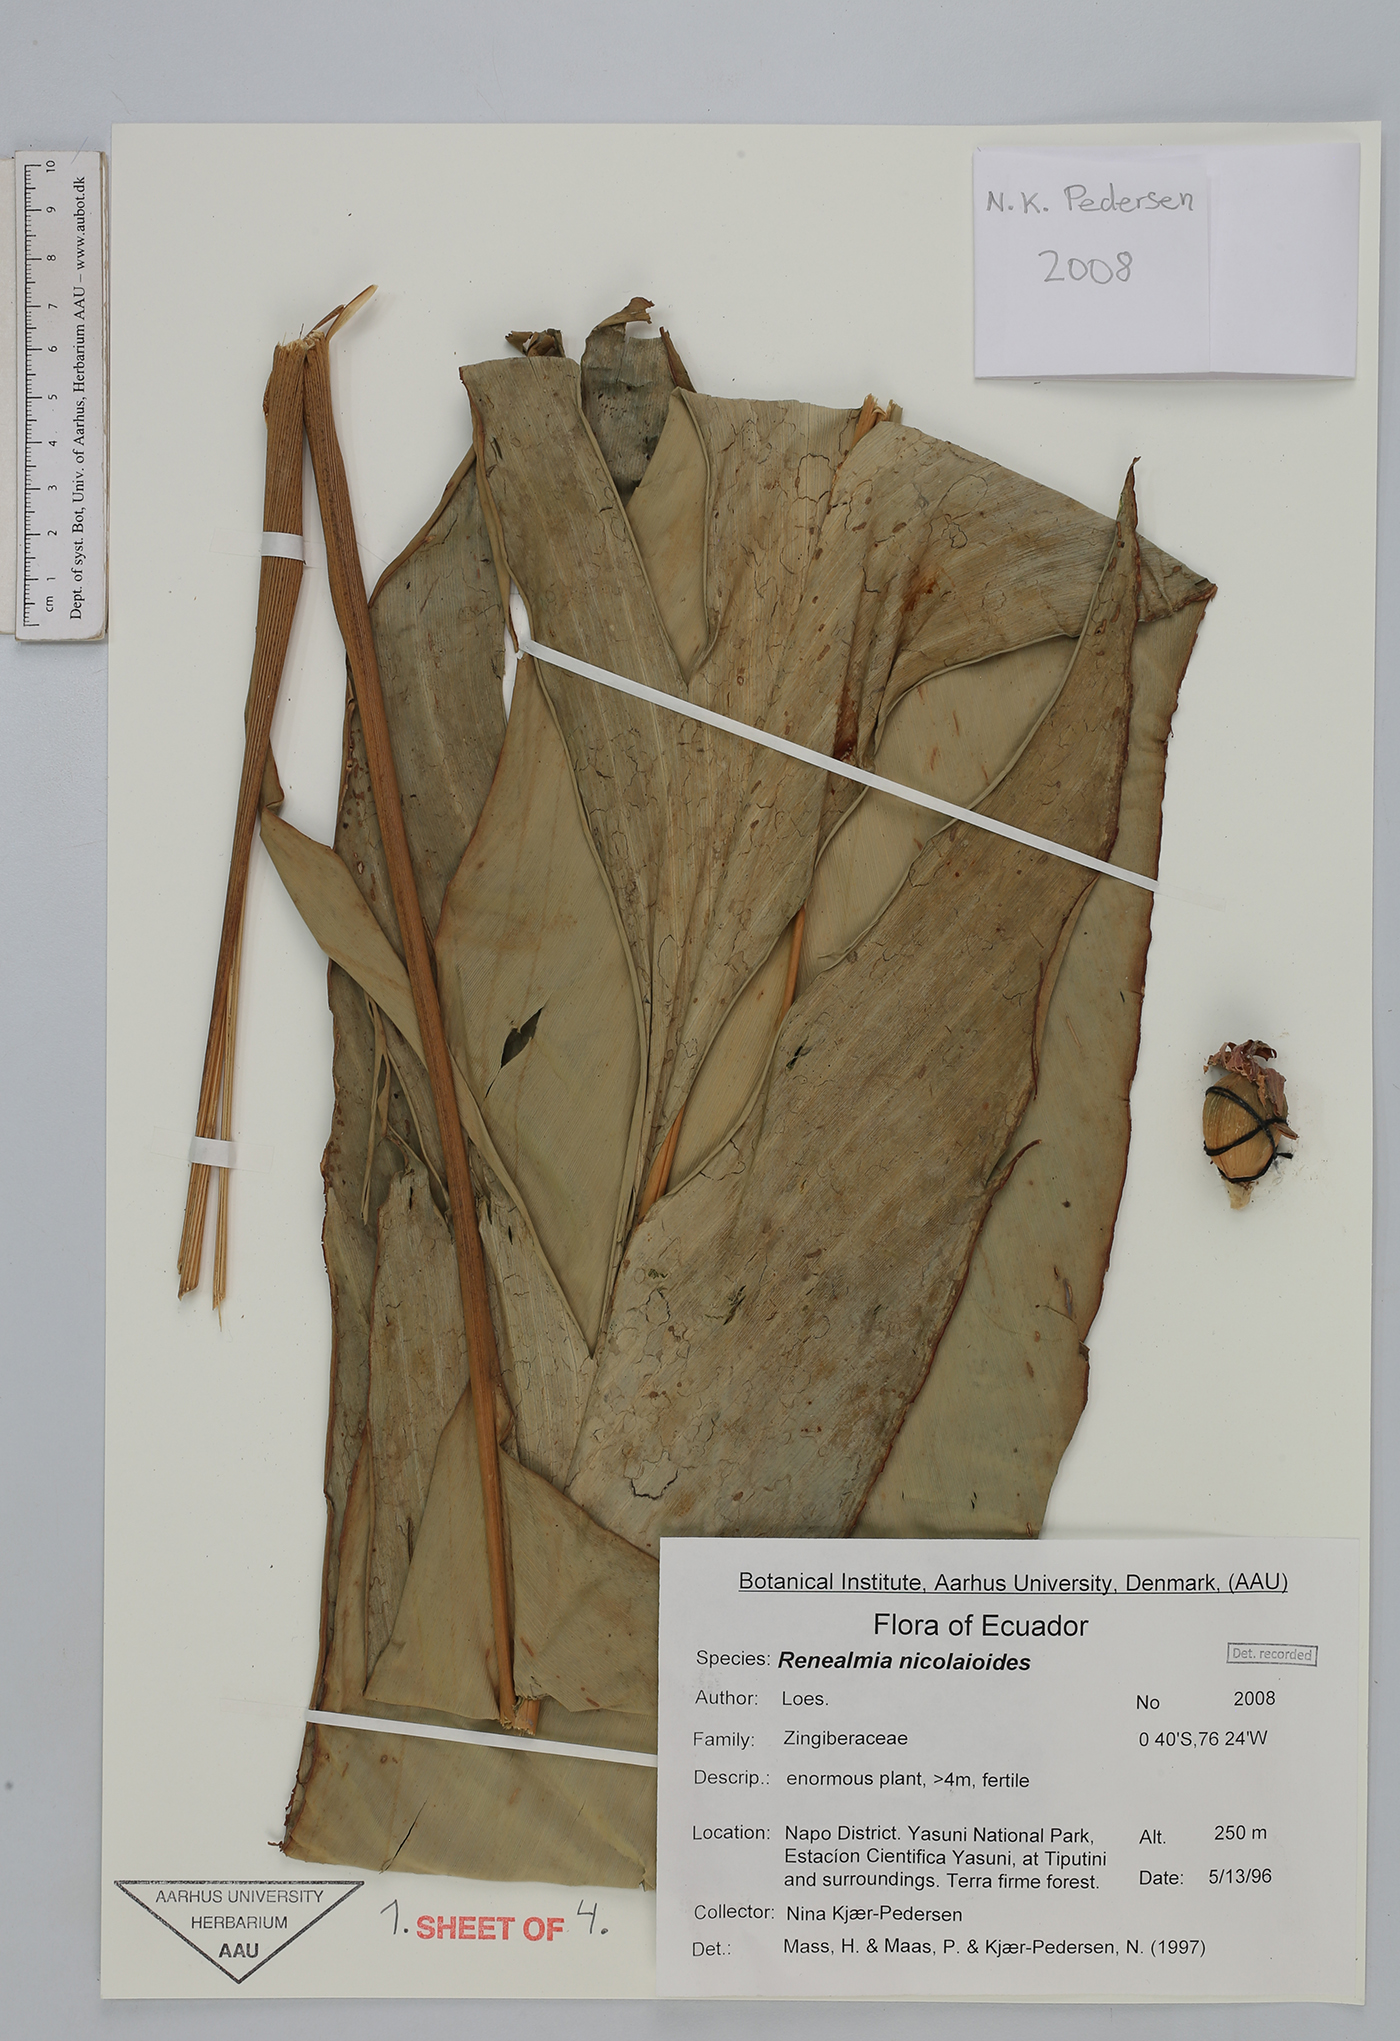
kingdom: Plantae
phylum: Tracheophyta
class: Liliopsida
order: Zingiberales
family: Zingiberaceae
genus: Renealmia
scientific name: Renealmia nicolaioides
